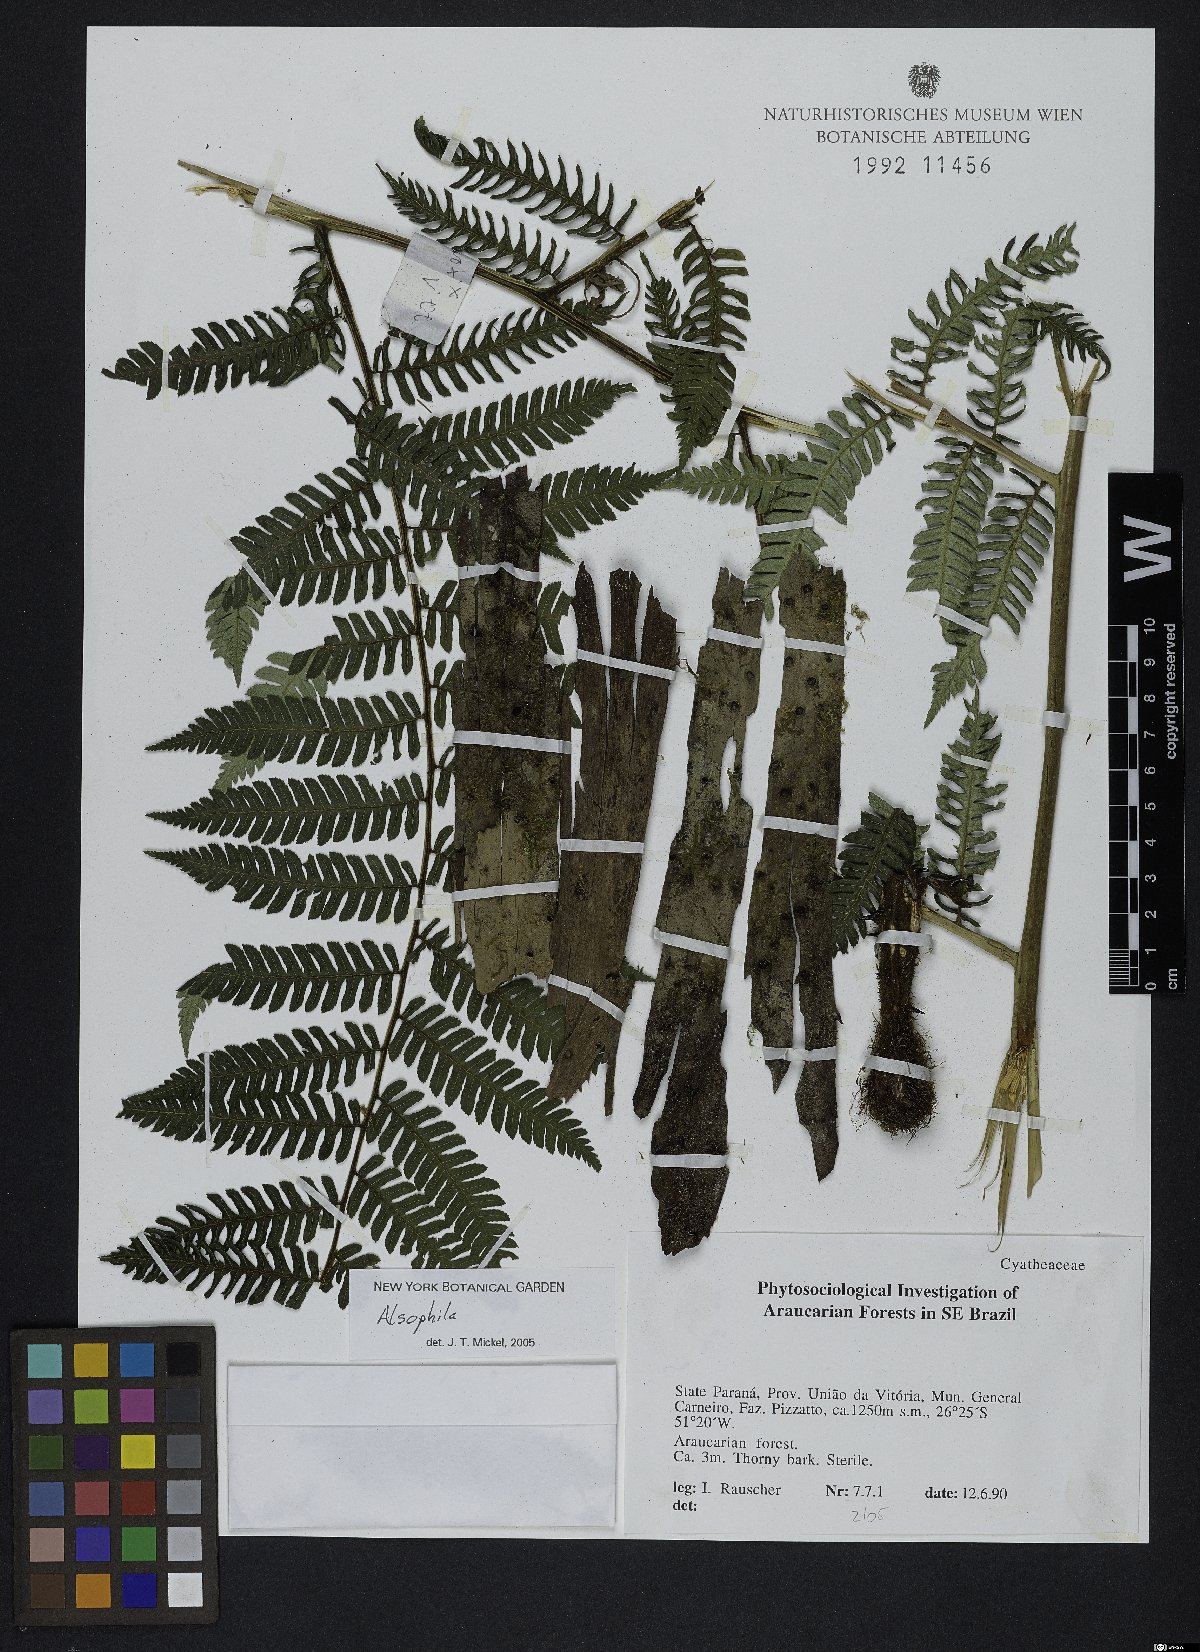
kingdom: Plantae
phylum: Tracheophyta
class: Polypodiopsida
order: Cyatheales
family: Cyatheaceae
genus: Alsophila
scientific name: Alsophila
